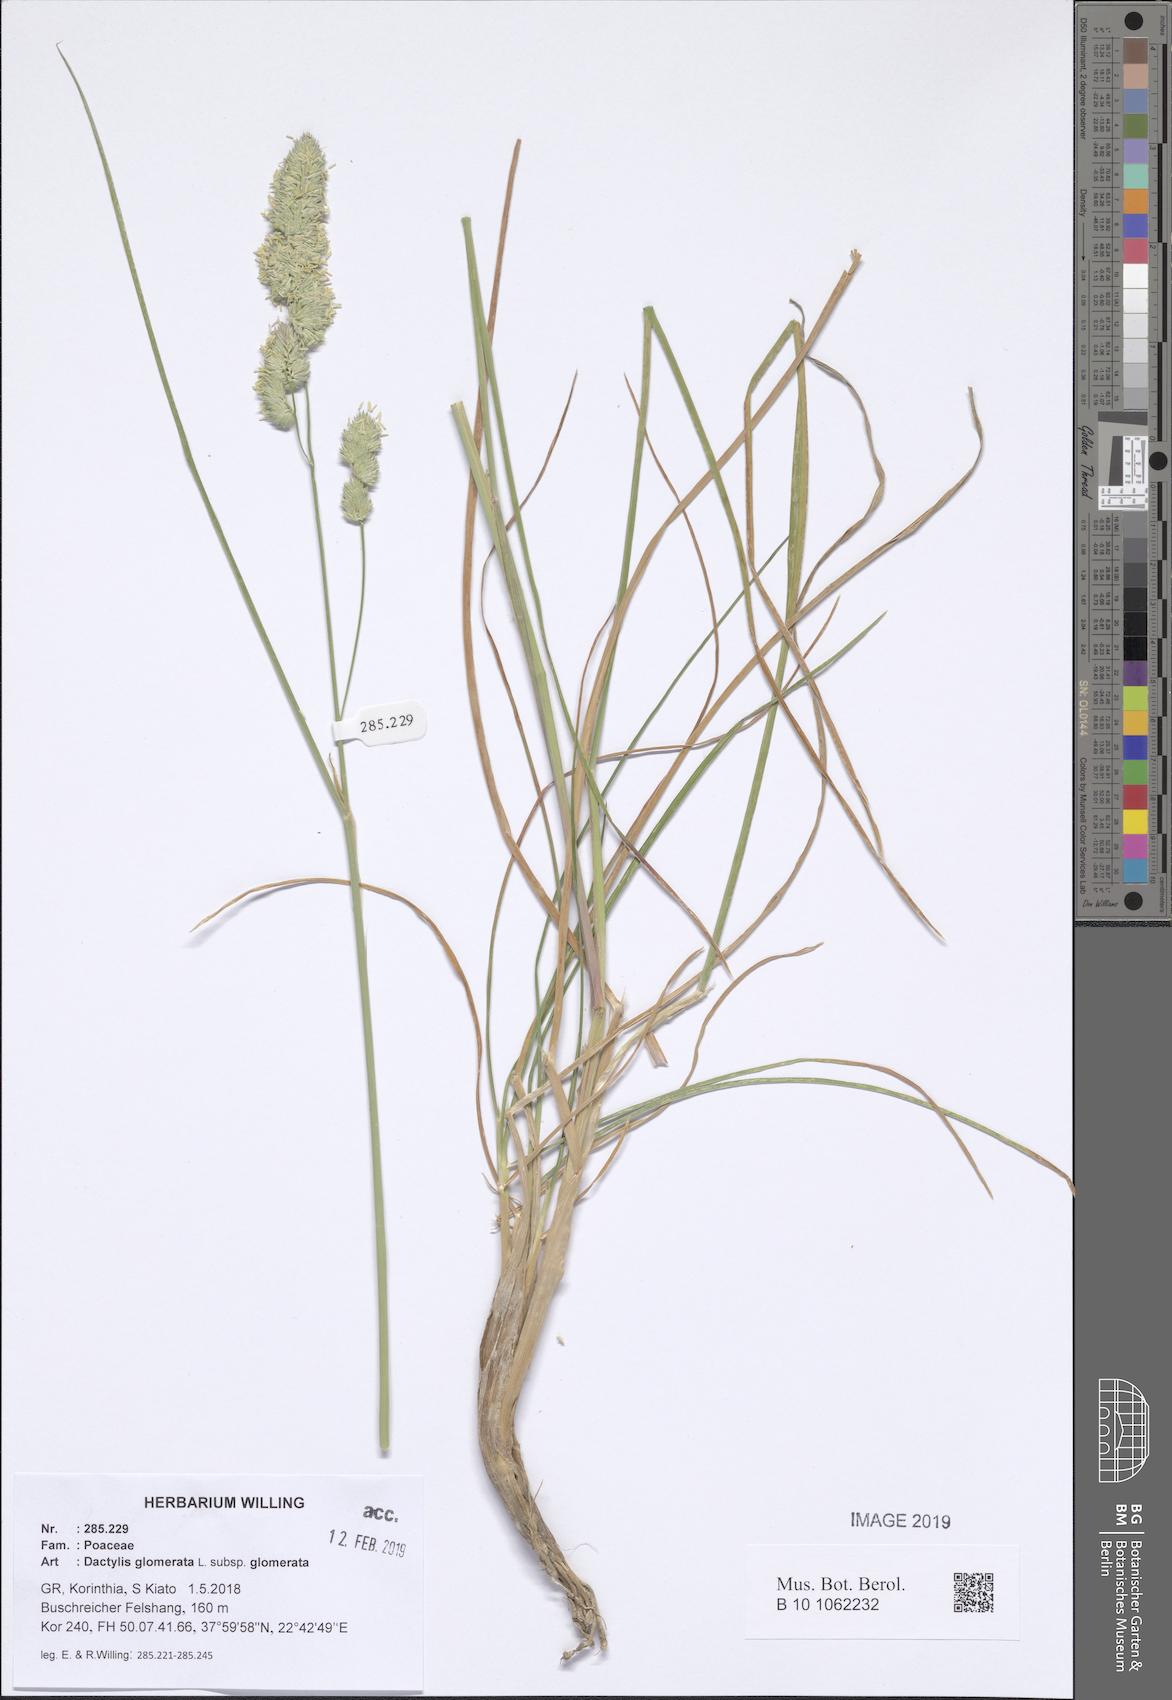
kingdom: Plantae
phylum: Tracheophyta
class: Liliopsida
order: Poales
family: Poaceae
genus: Dactylis
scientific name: Dactylis glomerata
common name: Orchardgrass
